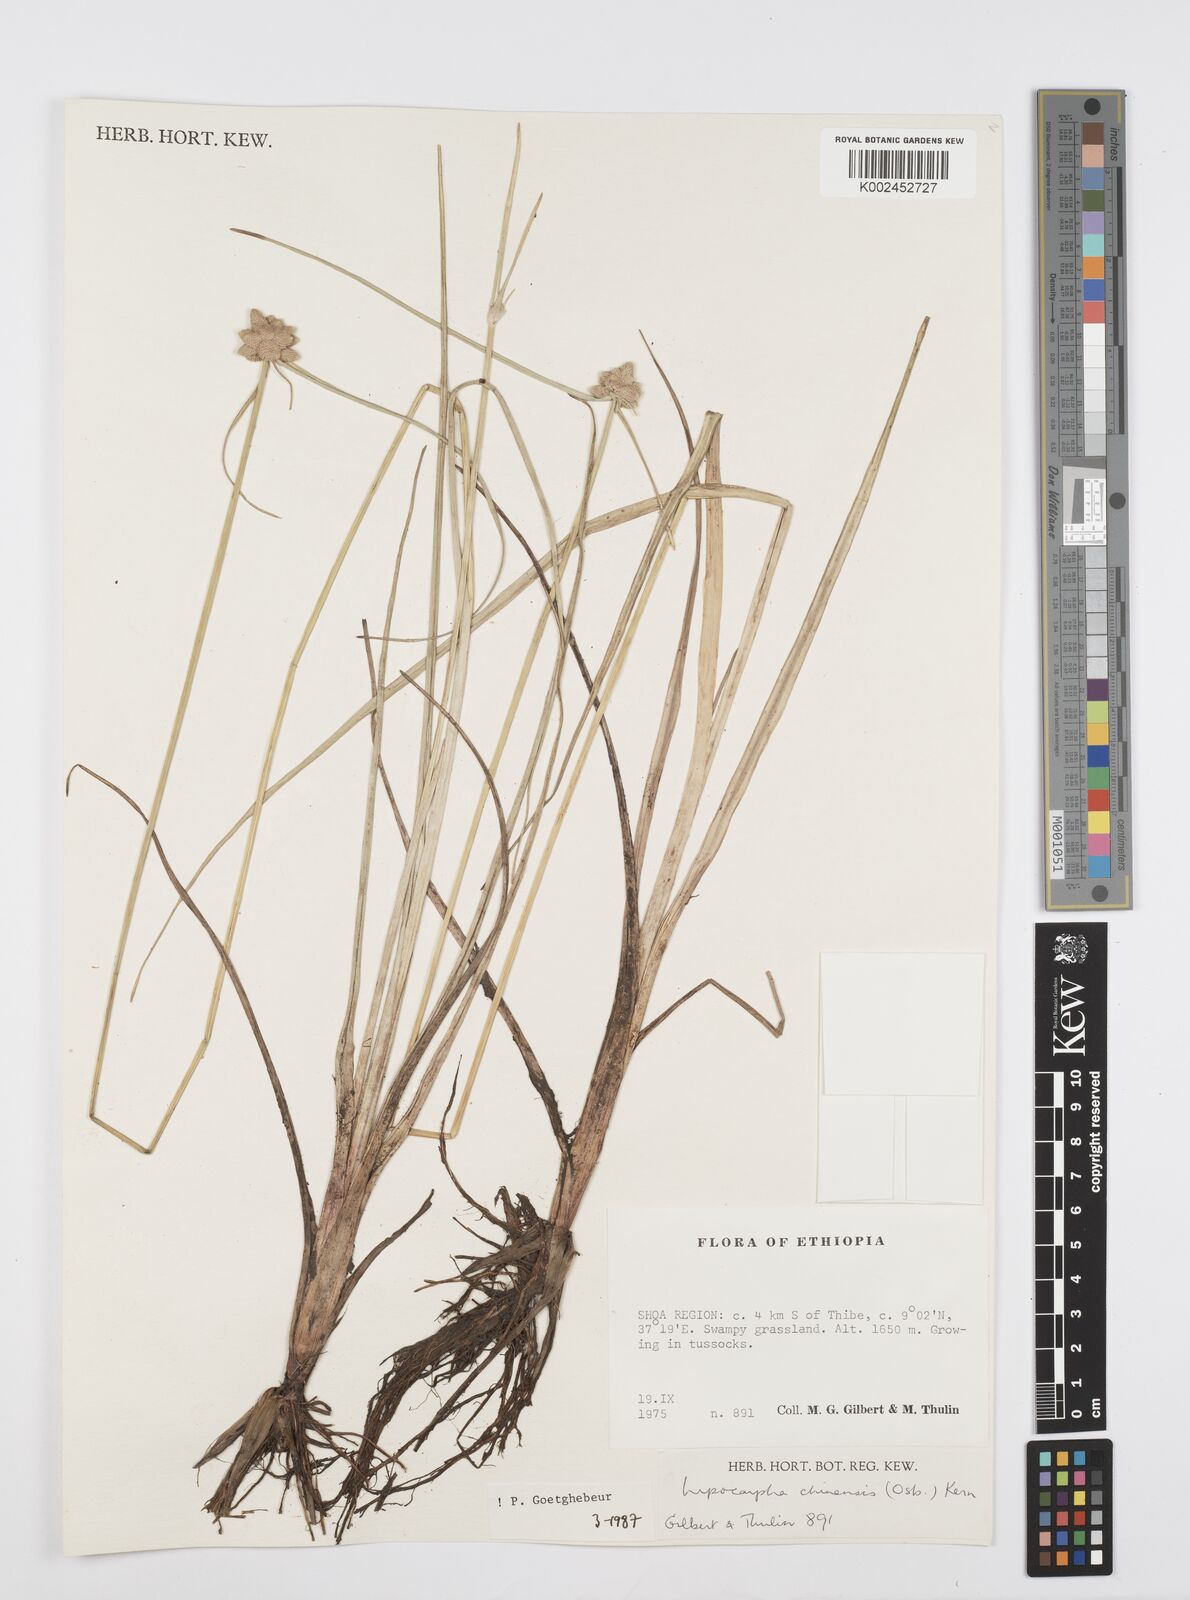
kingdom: Plantae
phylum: Tracheophyta
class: Liliopsida
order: Poales
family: Cyperaceae
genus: Cyperus
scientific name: Cyperus albescens
